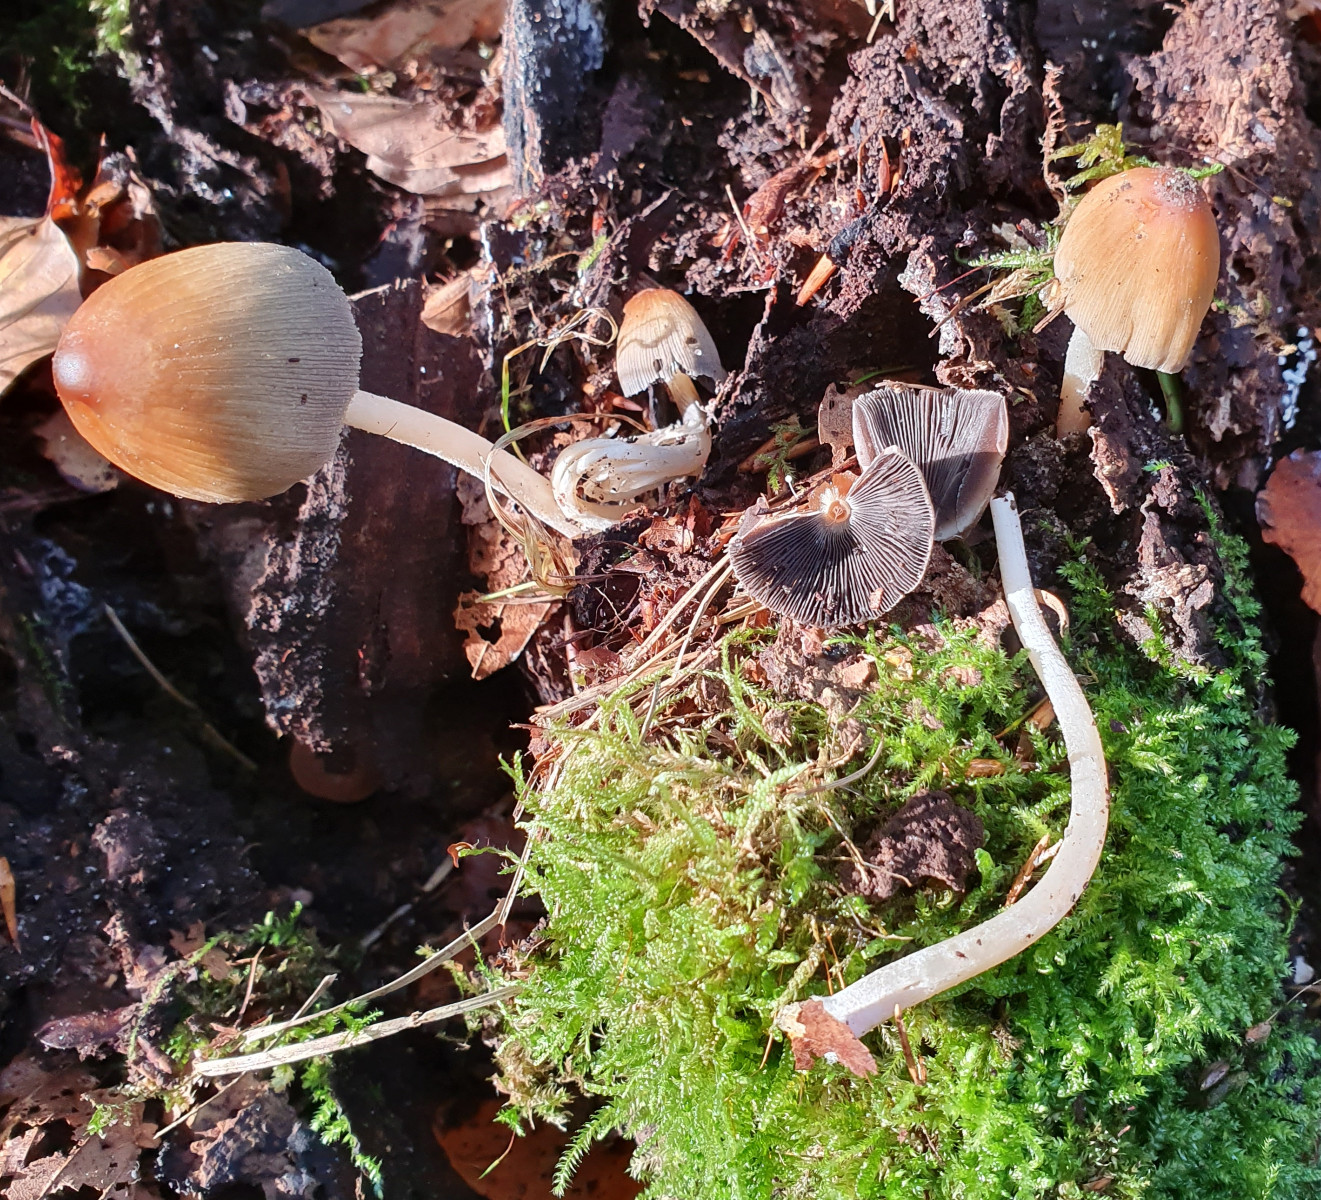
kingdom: Fungi
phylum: Basidiomycota
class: Agaricomycetes
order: Agaricales
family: Psathyrellaceae
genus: Coprinellus
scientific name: Coprinellus
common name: blækhat
